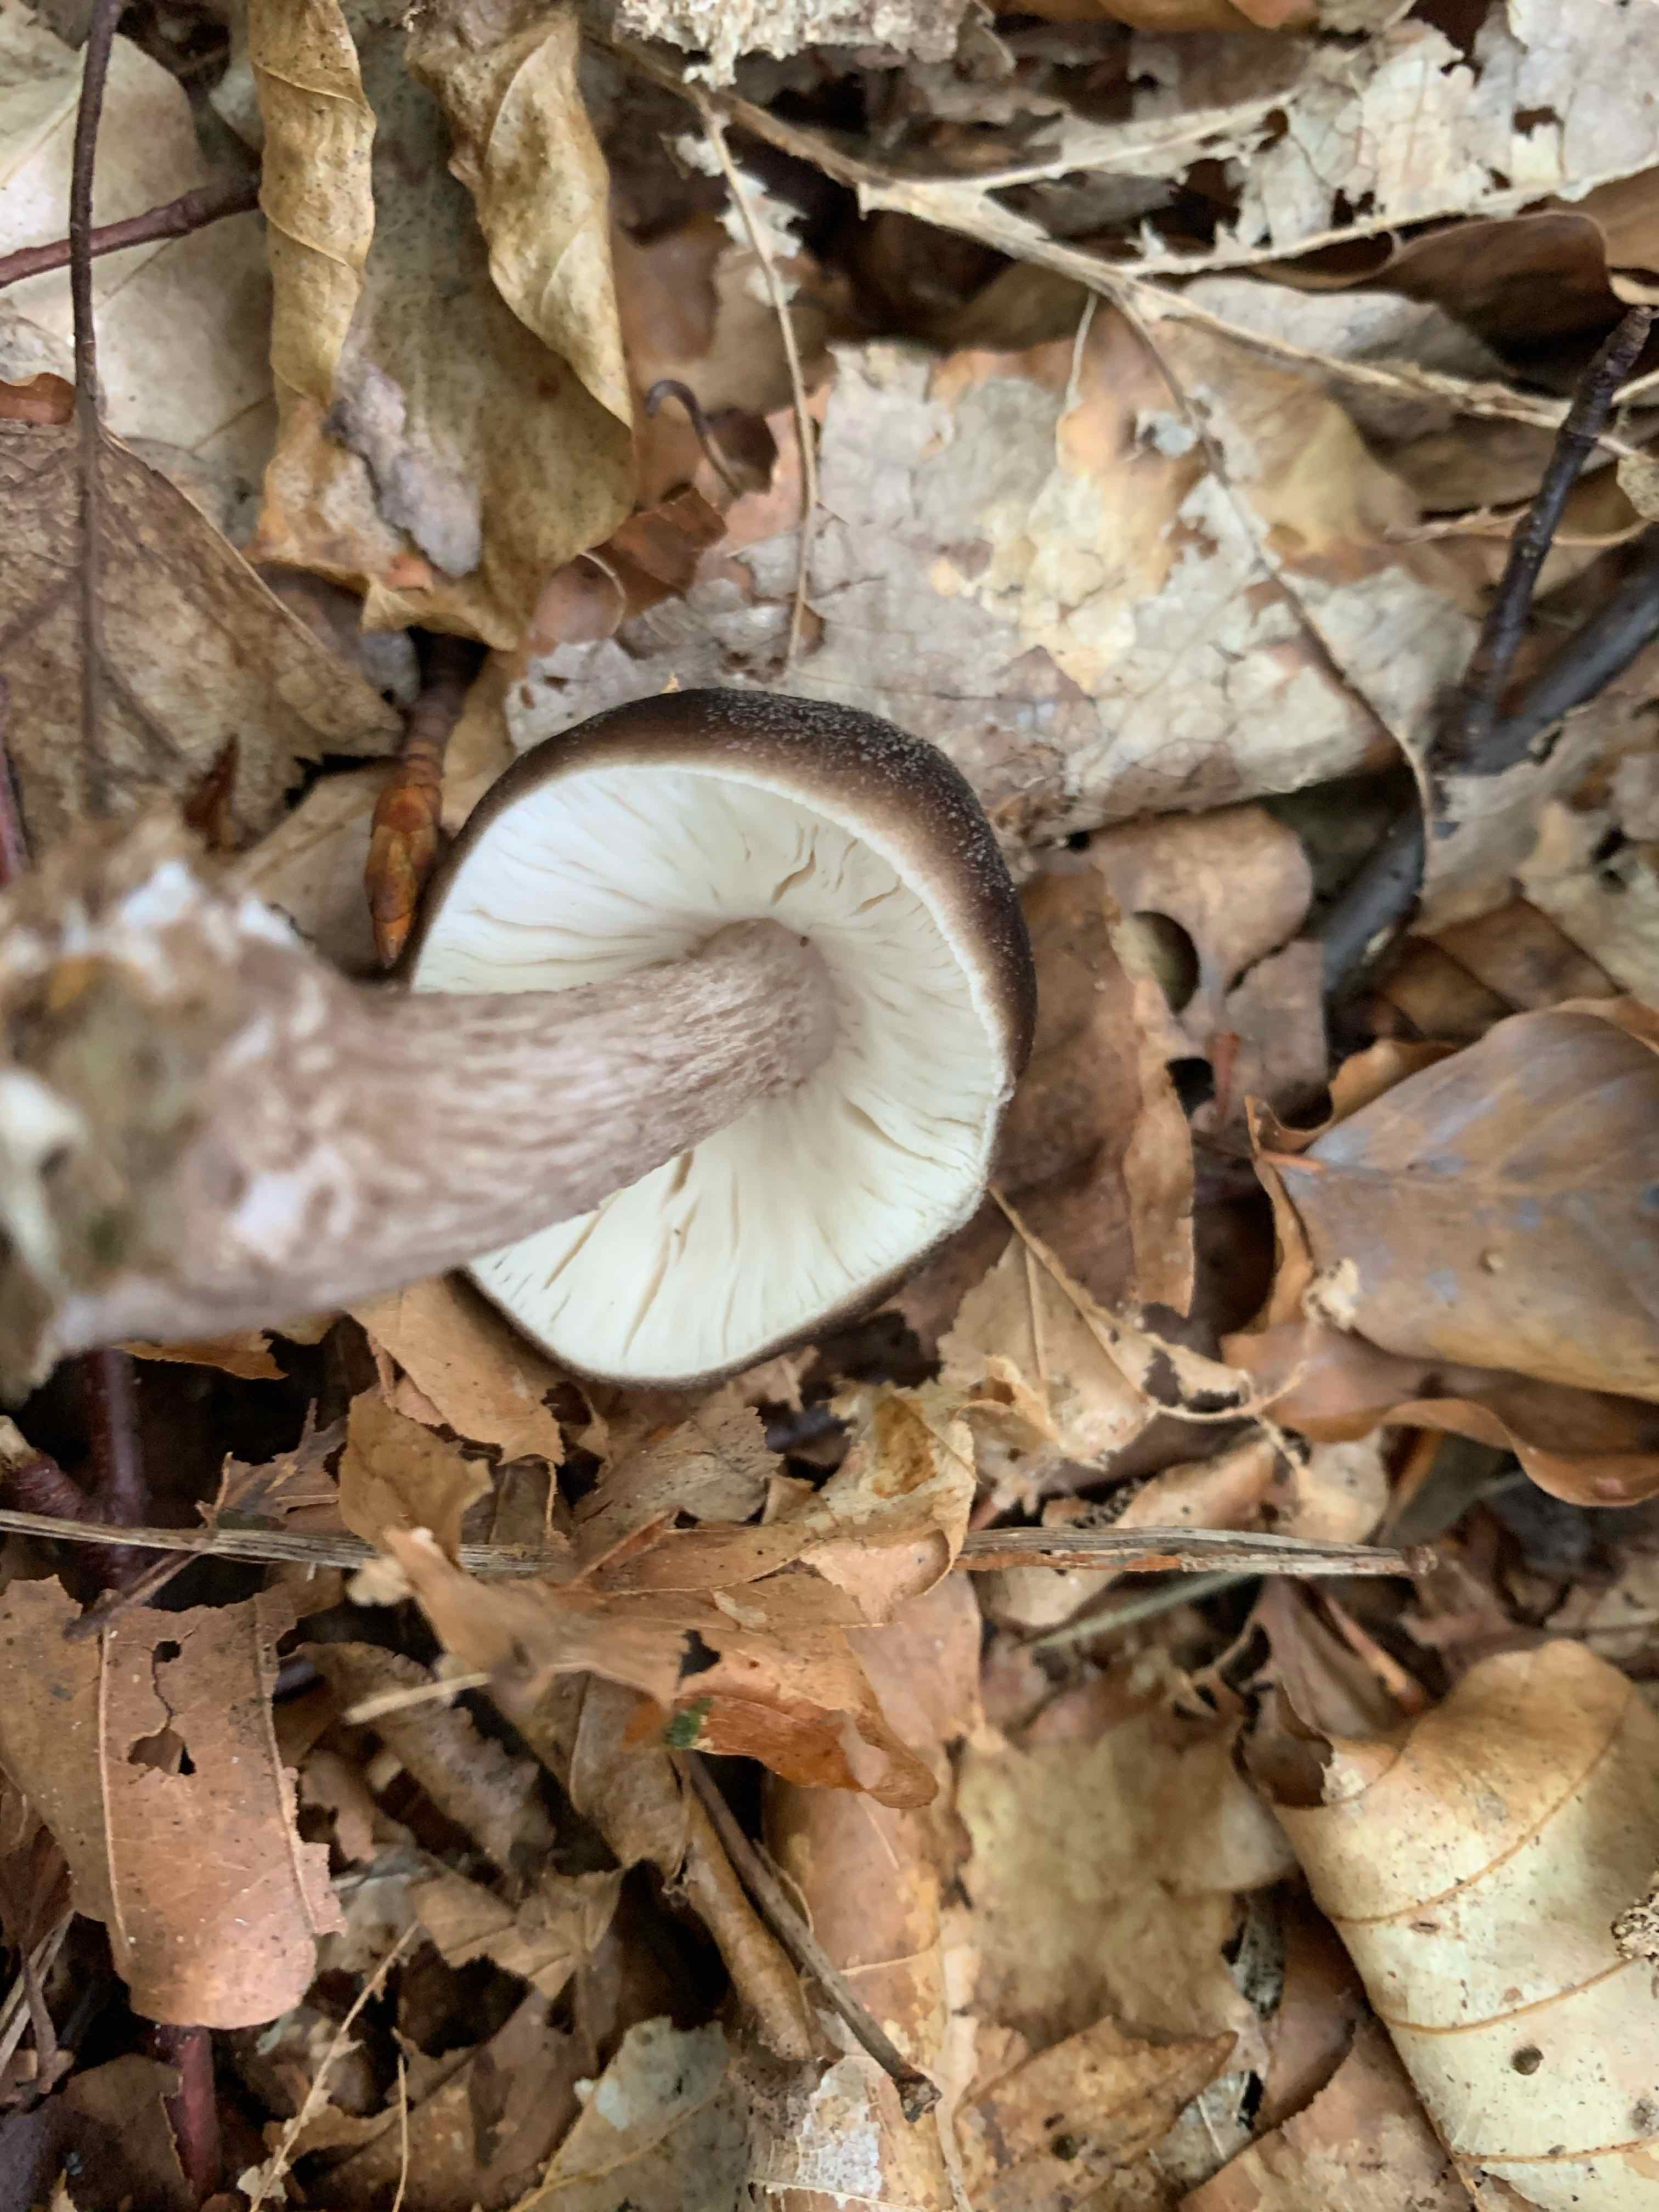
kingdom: Fungi
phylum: Basidiomycota
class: Agaricomycetes
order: Agaricales
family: Pluteaceae
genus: Pluteus
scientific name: Pluteus cervinus
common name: sodfarvet skærmhat
